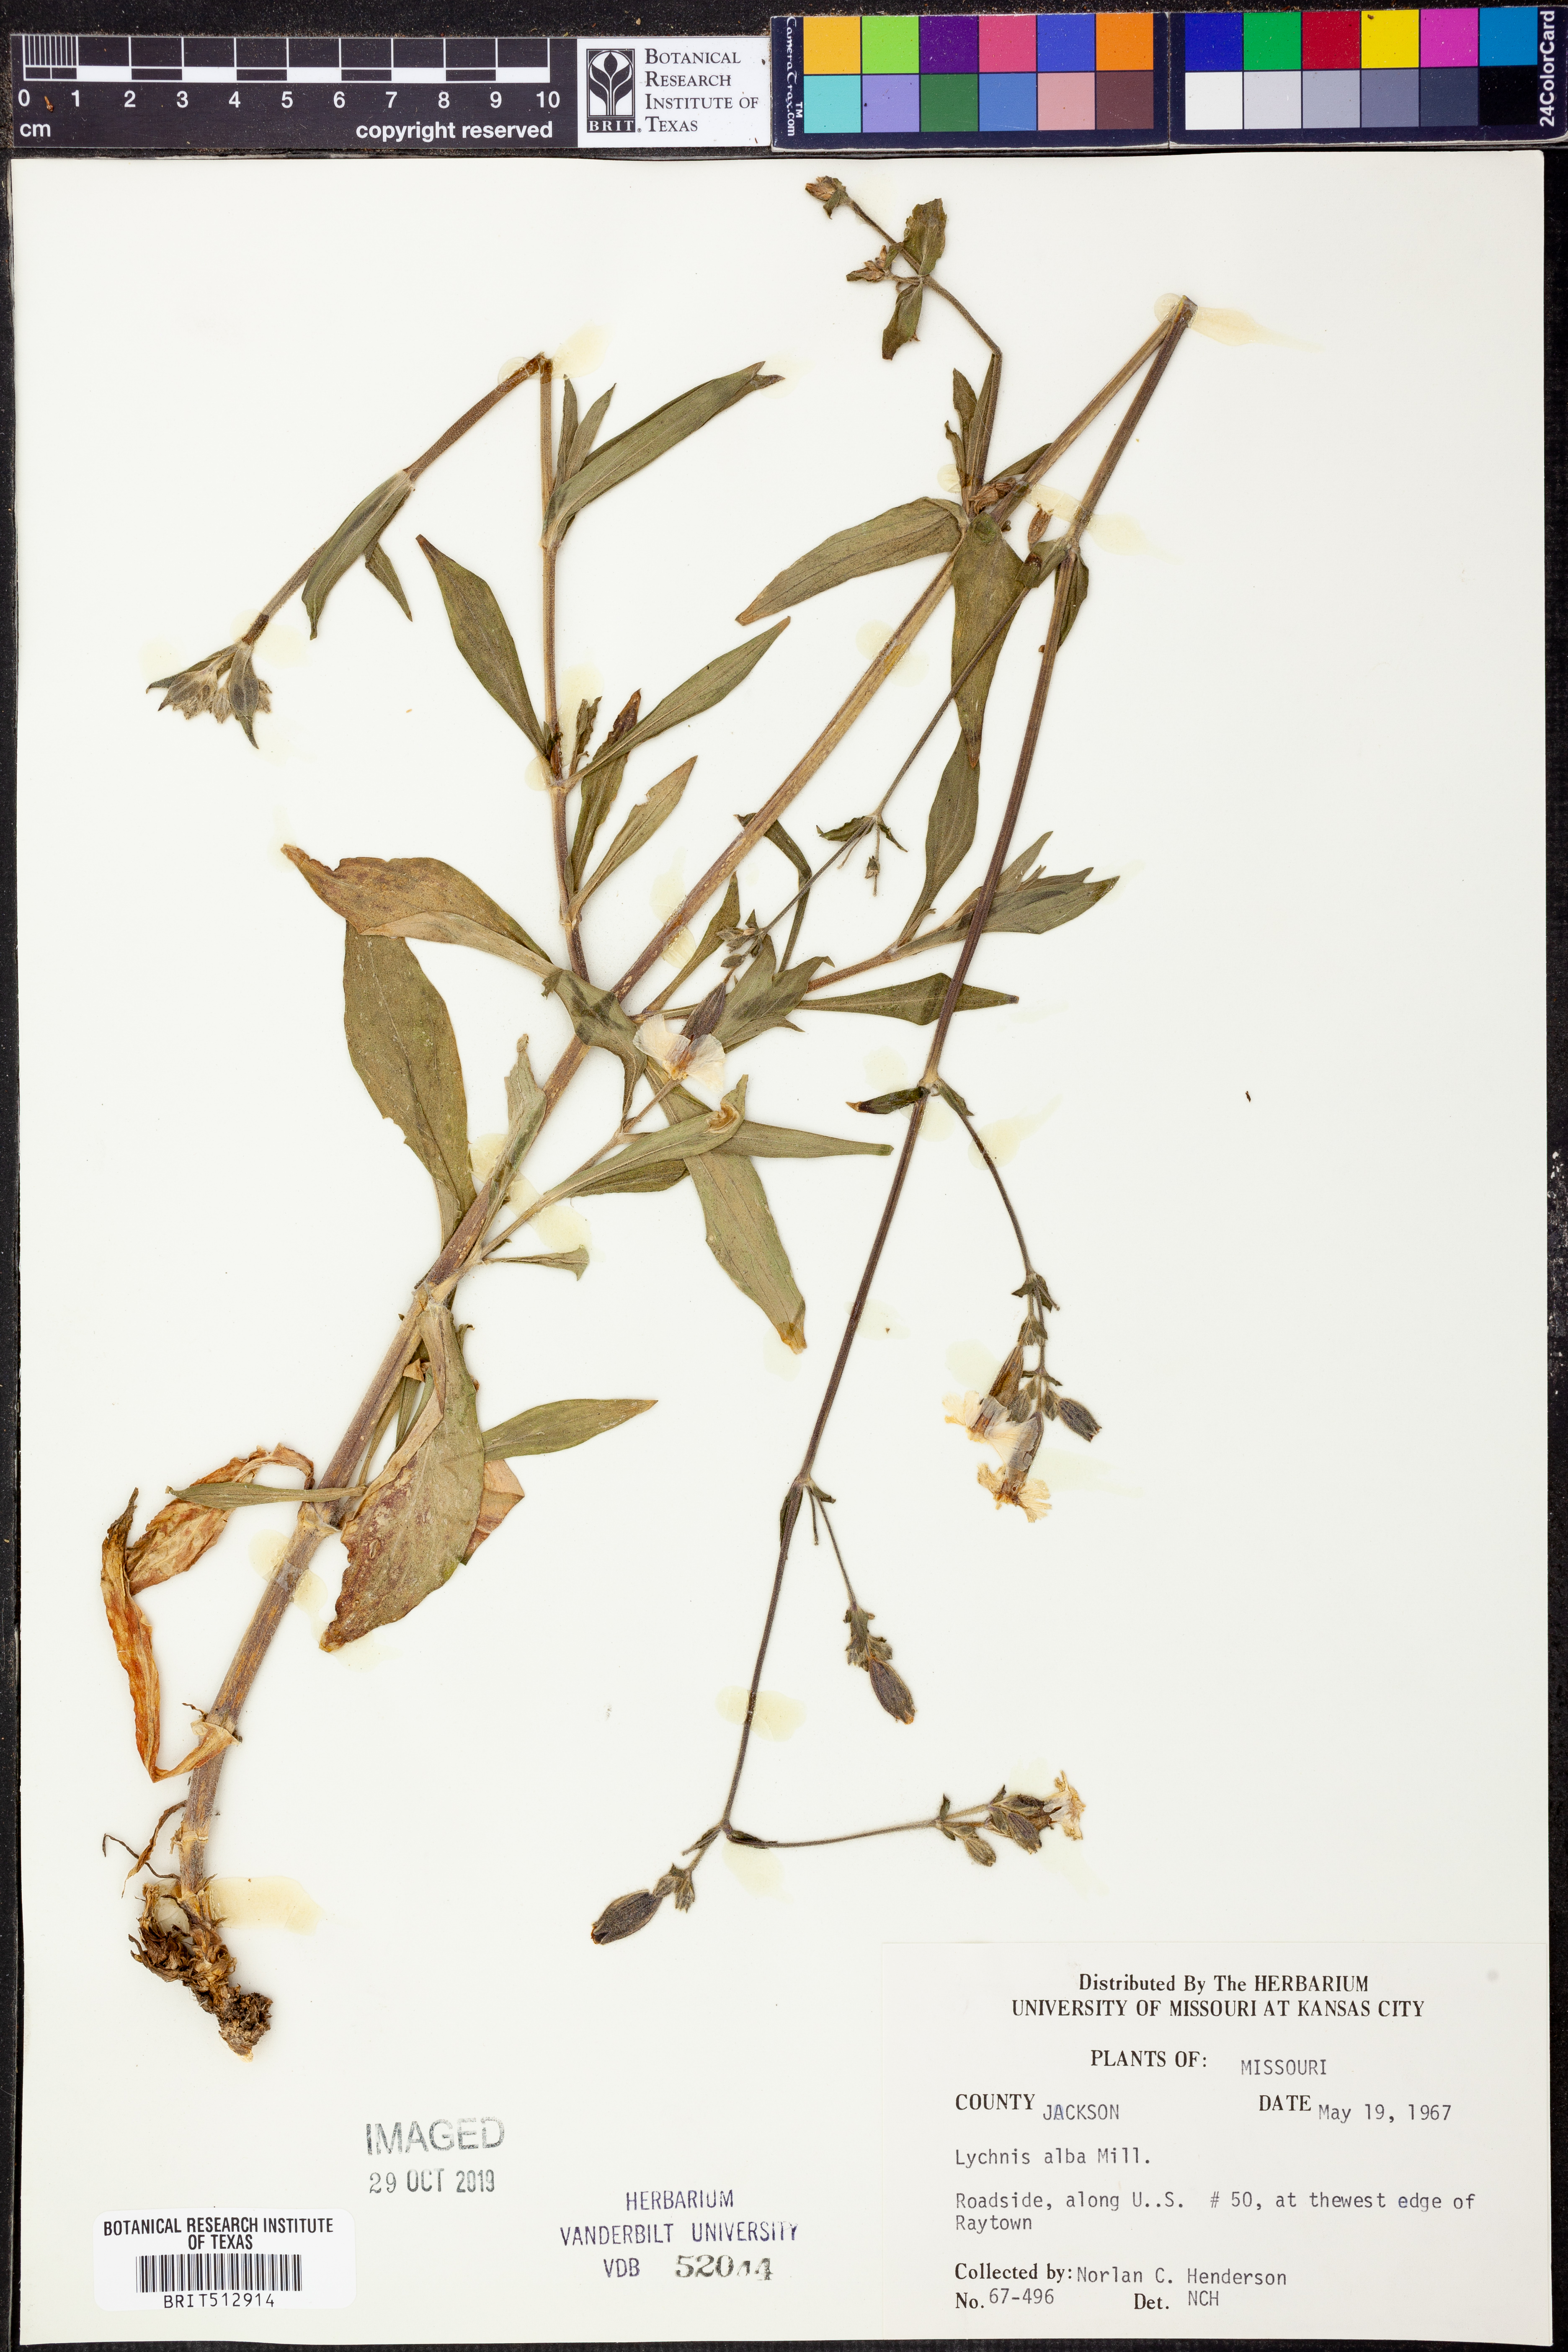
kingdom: Plantae
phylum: Tracheophyta
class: Magnoliopsida
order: Caryophyllales
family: Caryophyllaceae
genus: Silene
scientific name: Silene latifolia
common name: White campion
